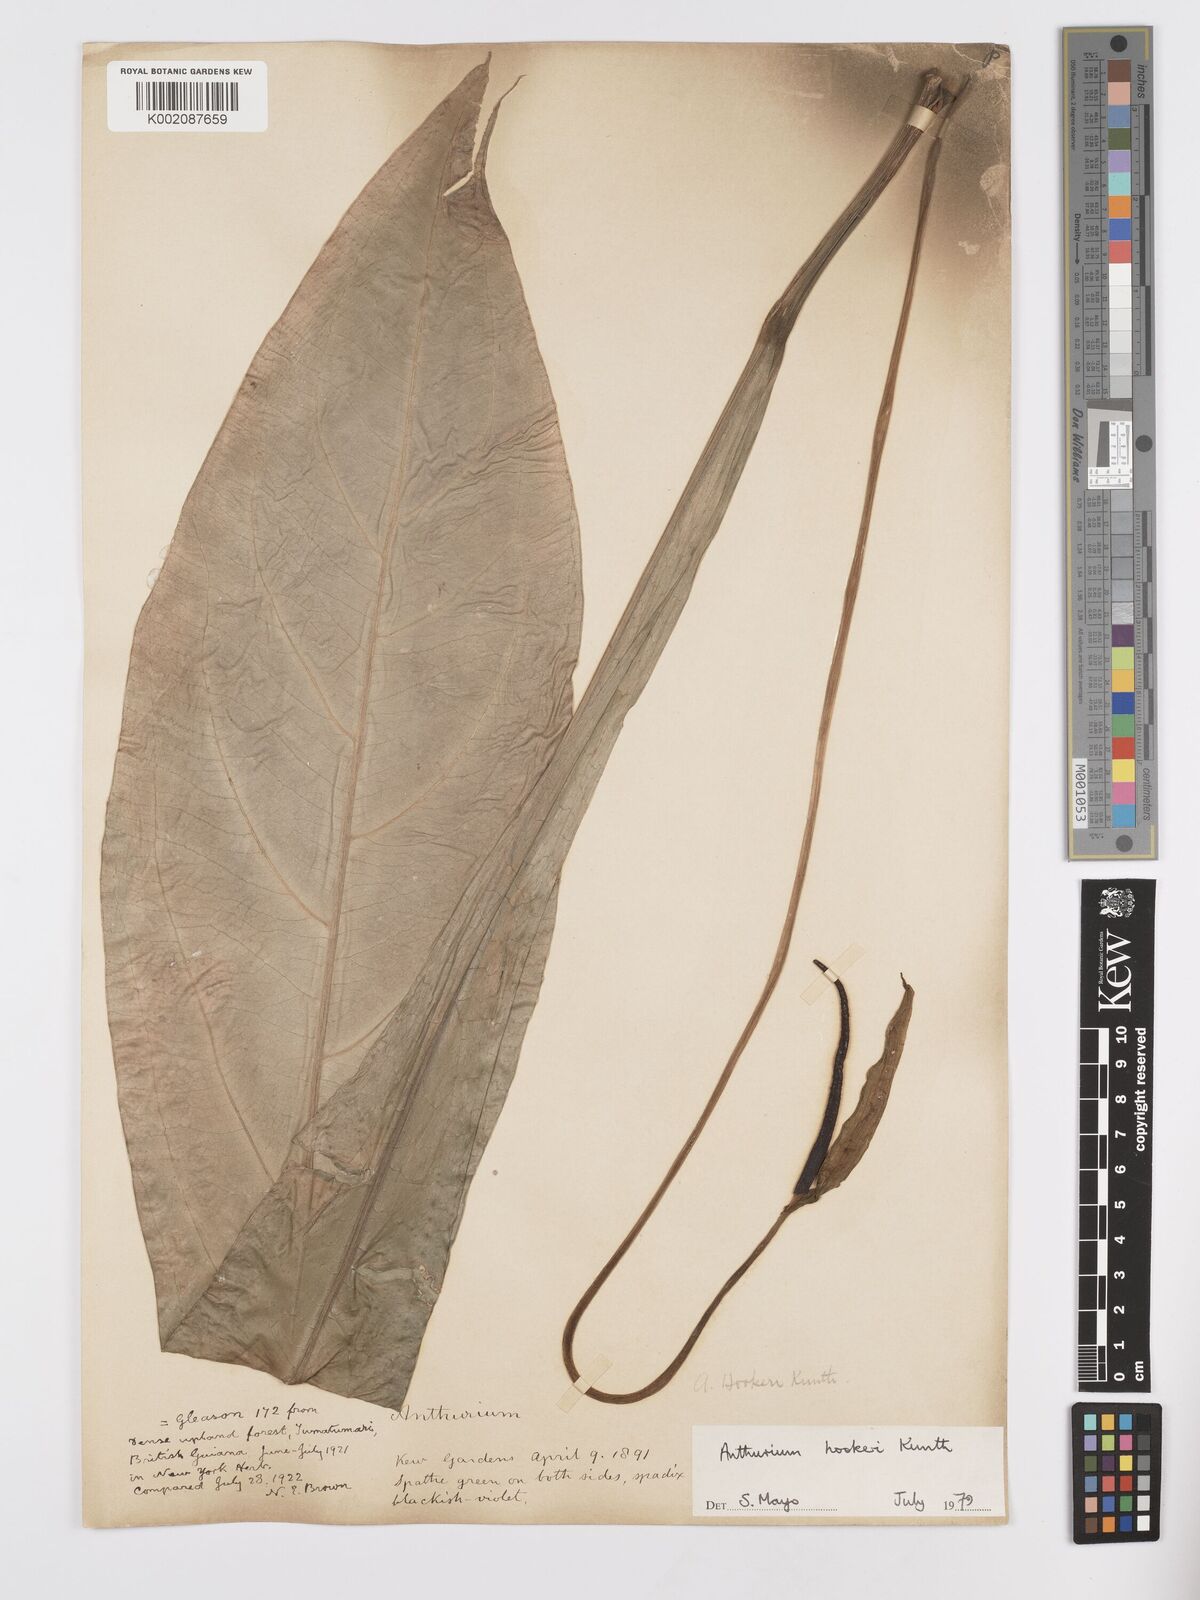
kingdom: Plantae
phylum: Tracheophyta
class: Liliopsida
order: Alismatales
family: Araceae
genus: Anthurium
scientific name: Anthurium hookeri
